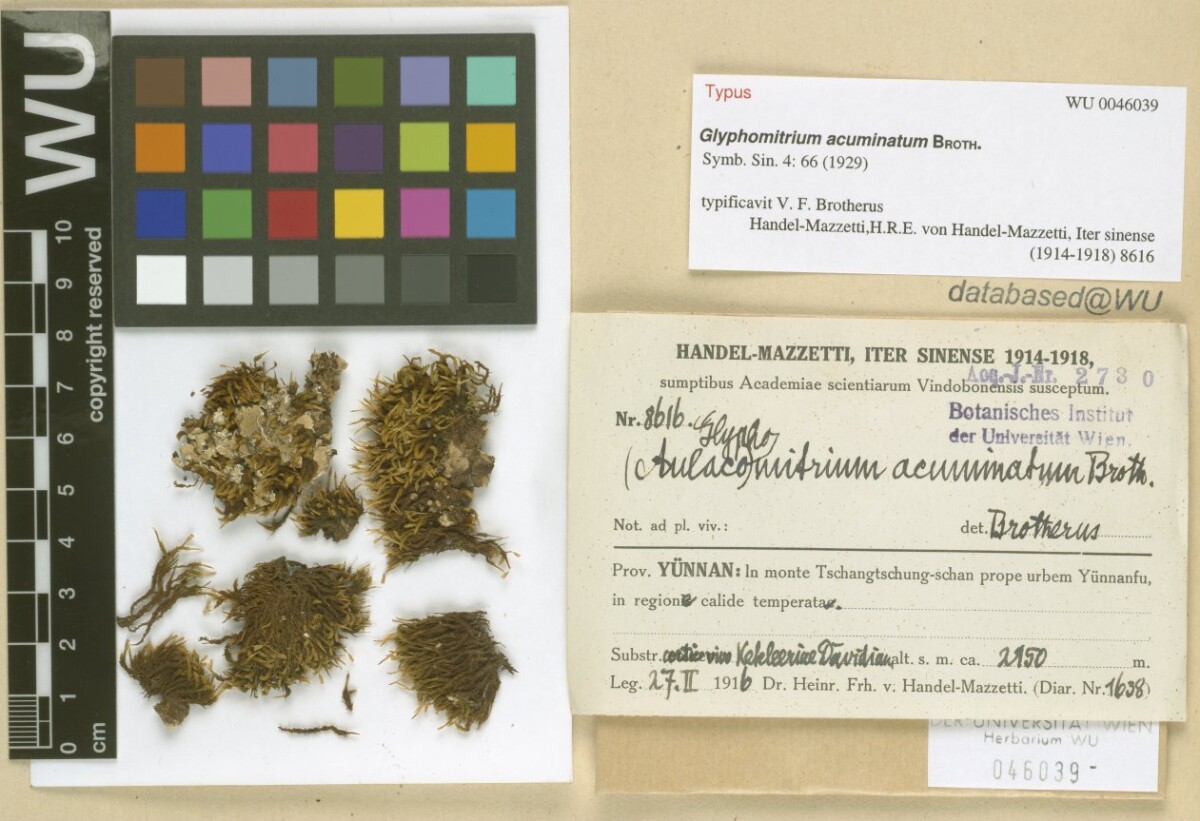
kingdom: Plantae
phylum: Bryophyta
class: Bryopsida
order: Dicranales
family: Rhabdoweisiaceae
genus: Glyphomitrium
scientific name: Glyphomitrium acuminatum
